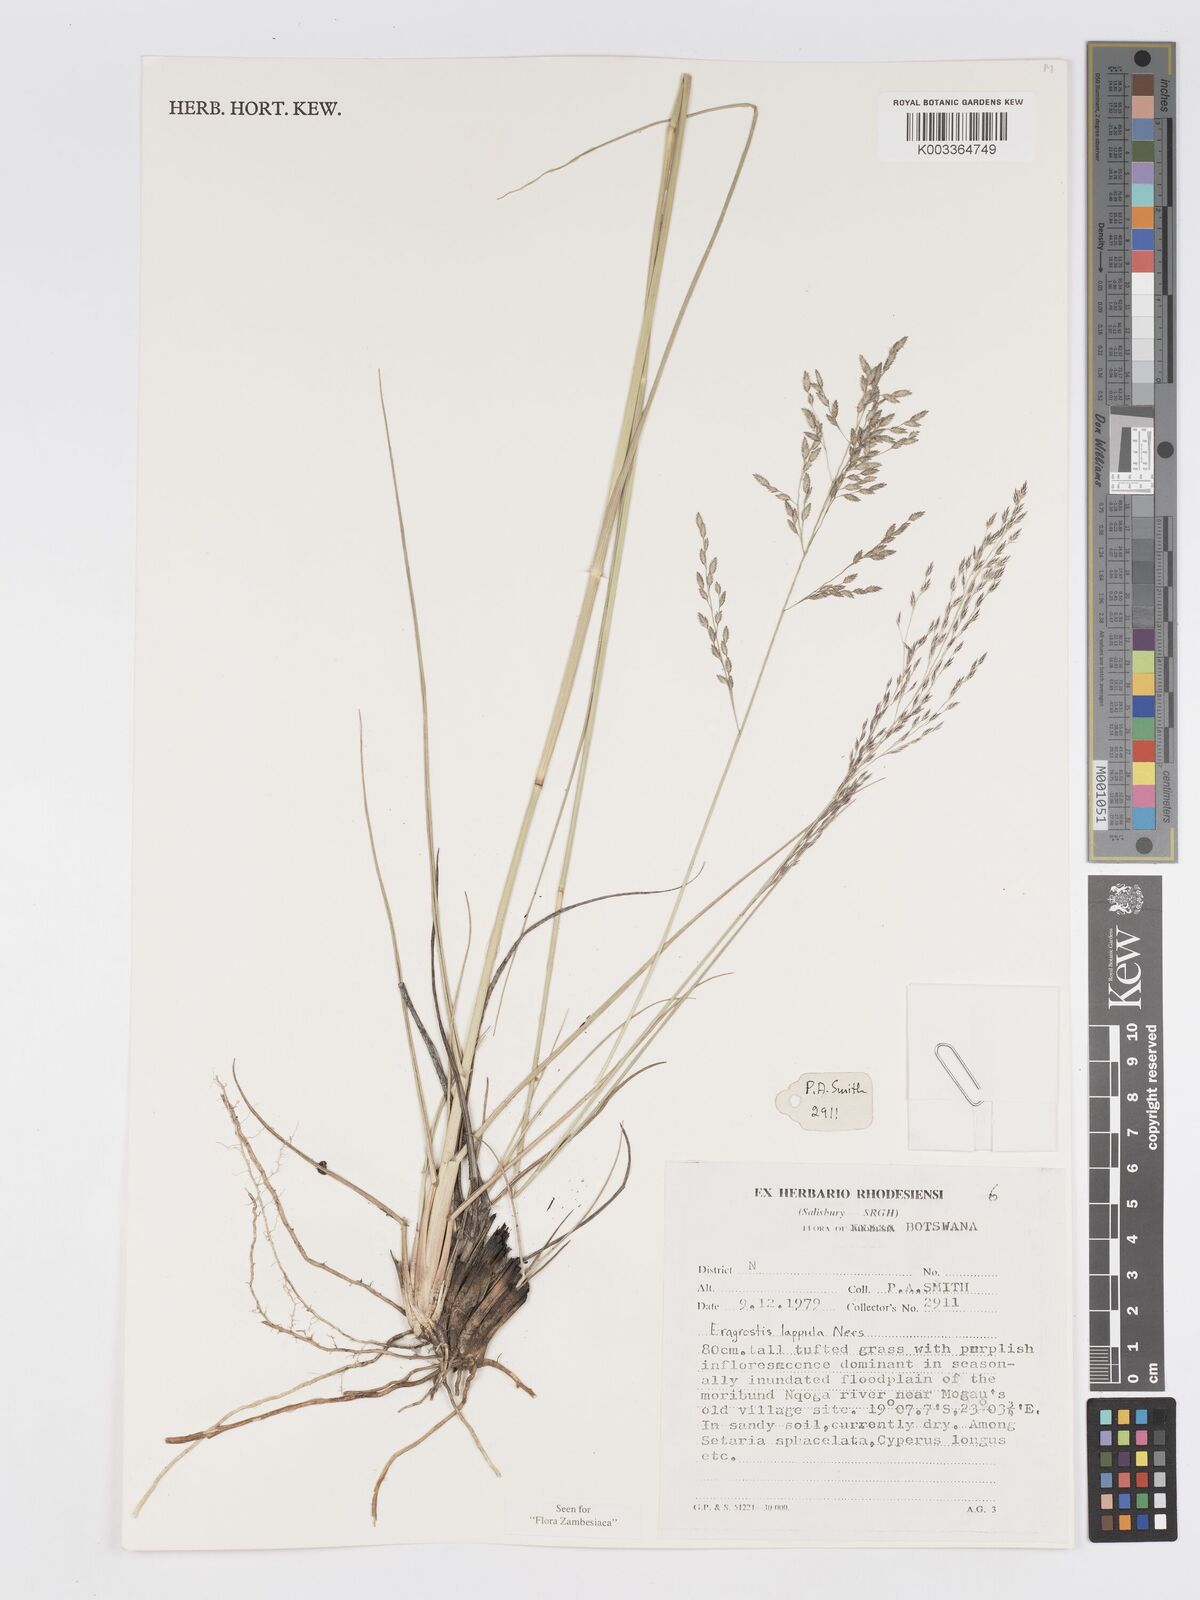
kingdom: Plantae
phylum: Tracheophyta
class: Liliopsida
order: Poales
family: Poaceae
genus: Eragrostis
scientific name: Eragrostis lappula
